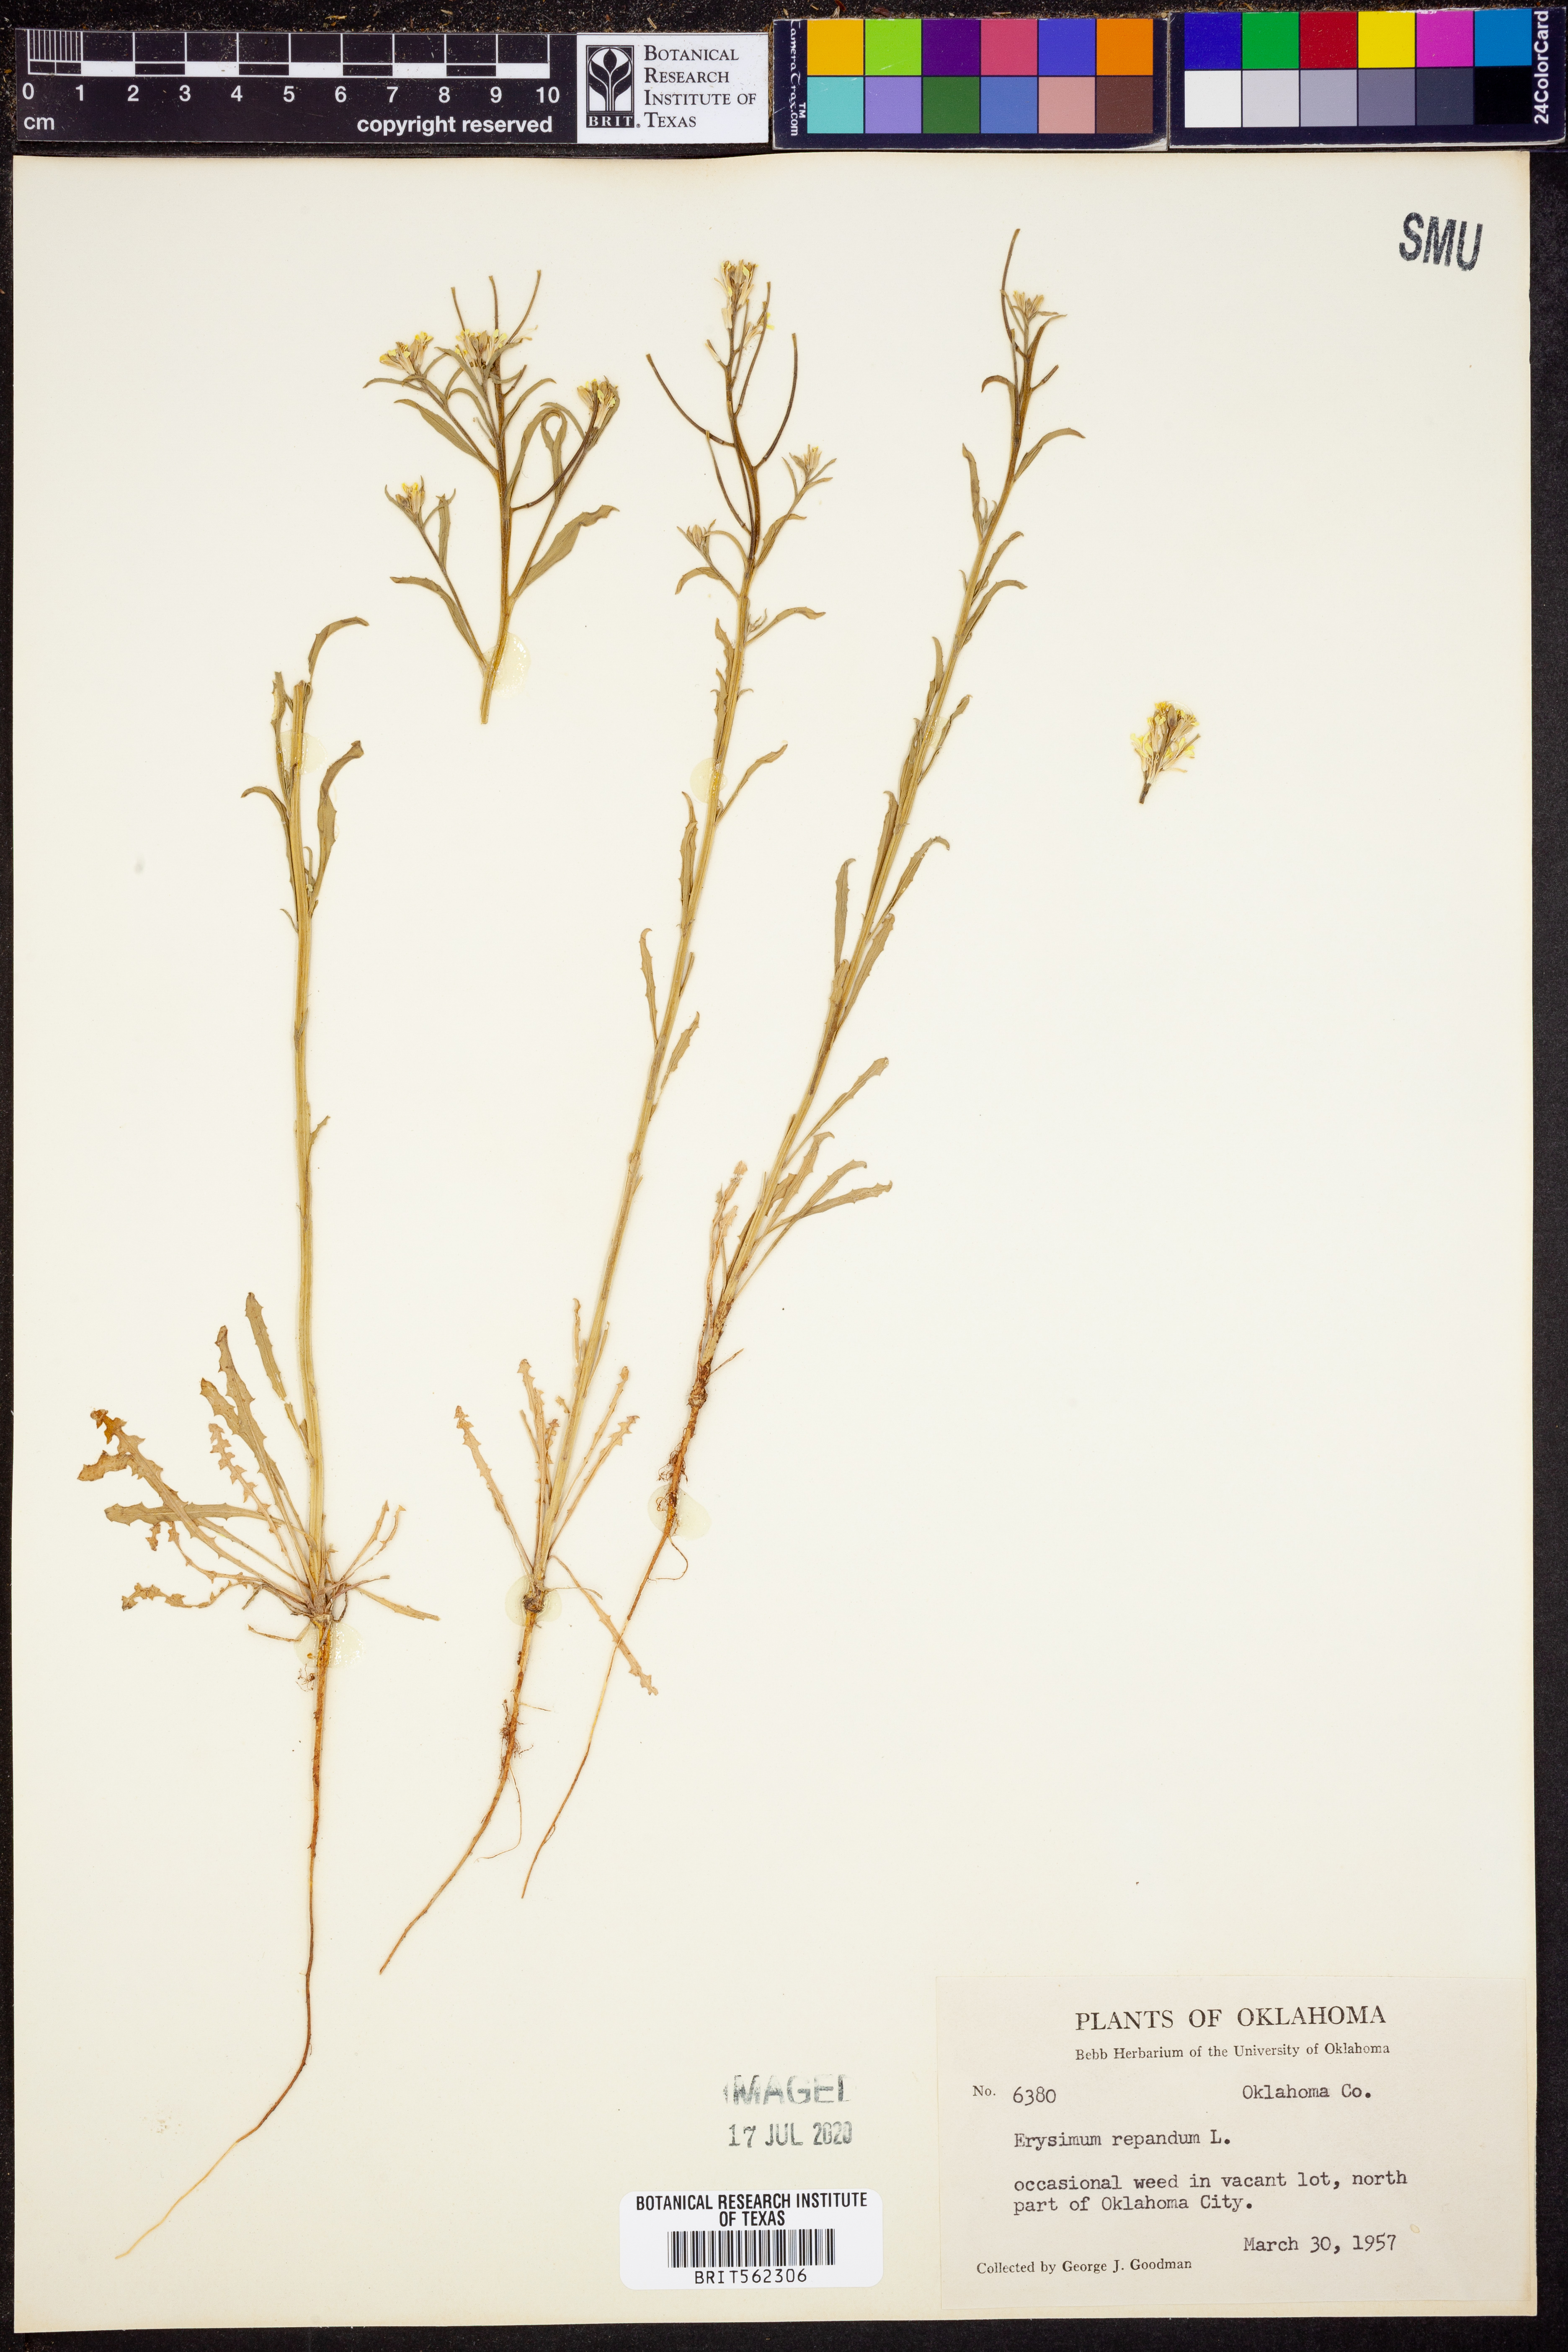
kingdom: Plantae
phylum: Tracheophyta
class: Magnoliopsida
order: Brassicales
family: Brassicaceae
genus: Erysimum
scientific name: Erysimum repandum
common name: Spreading wallflower
